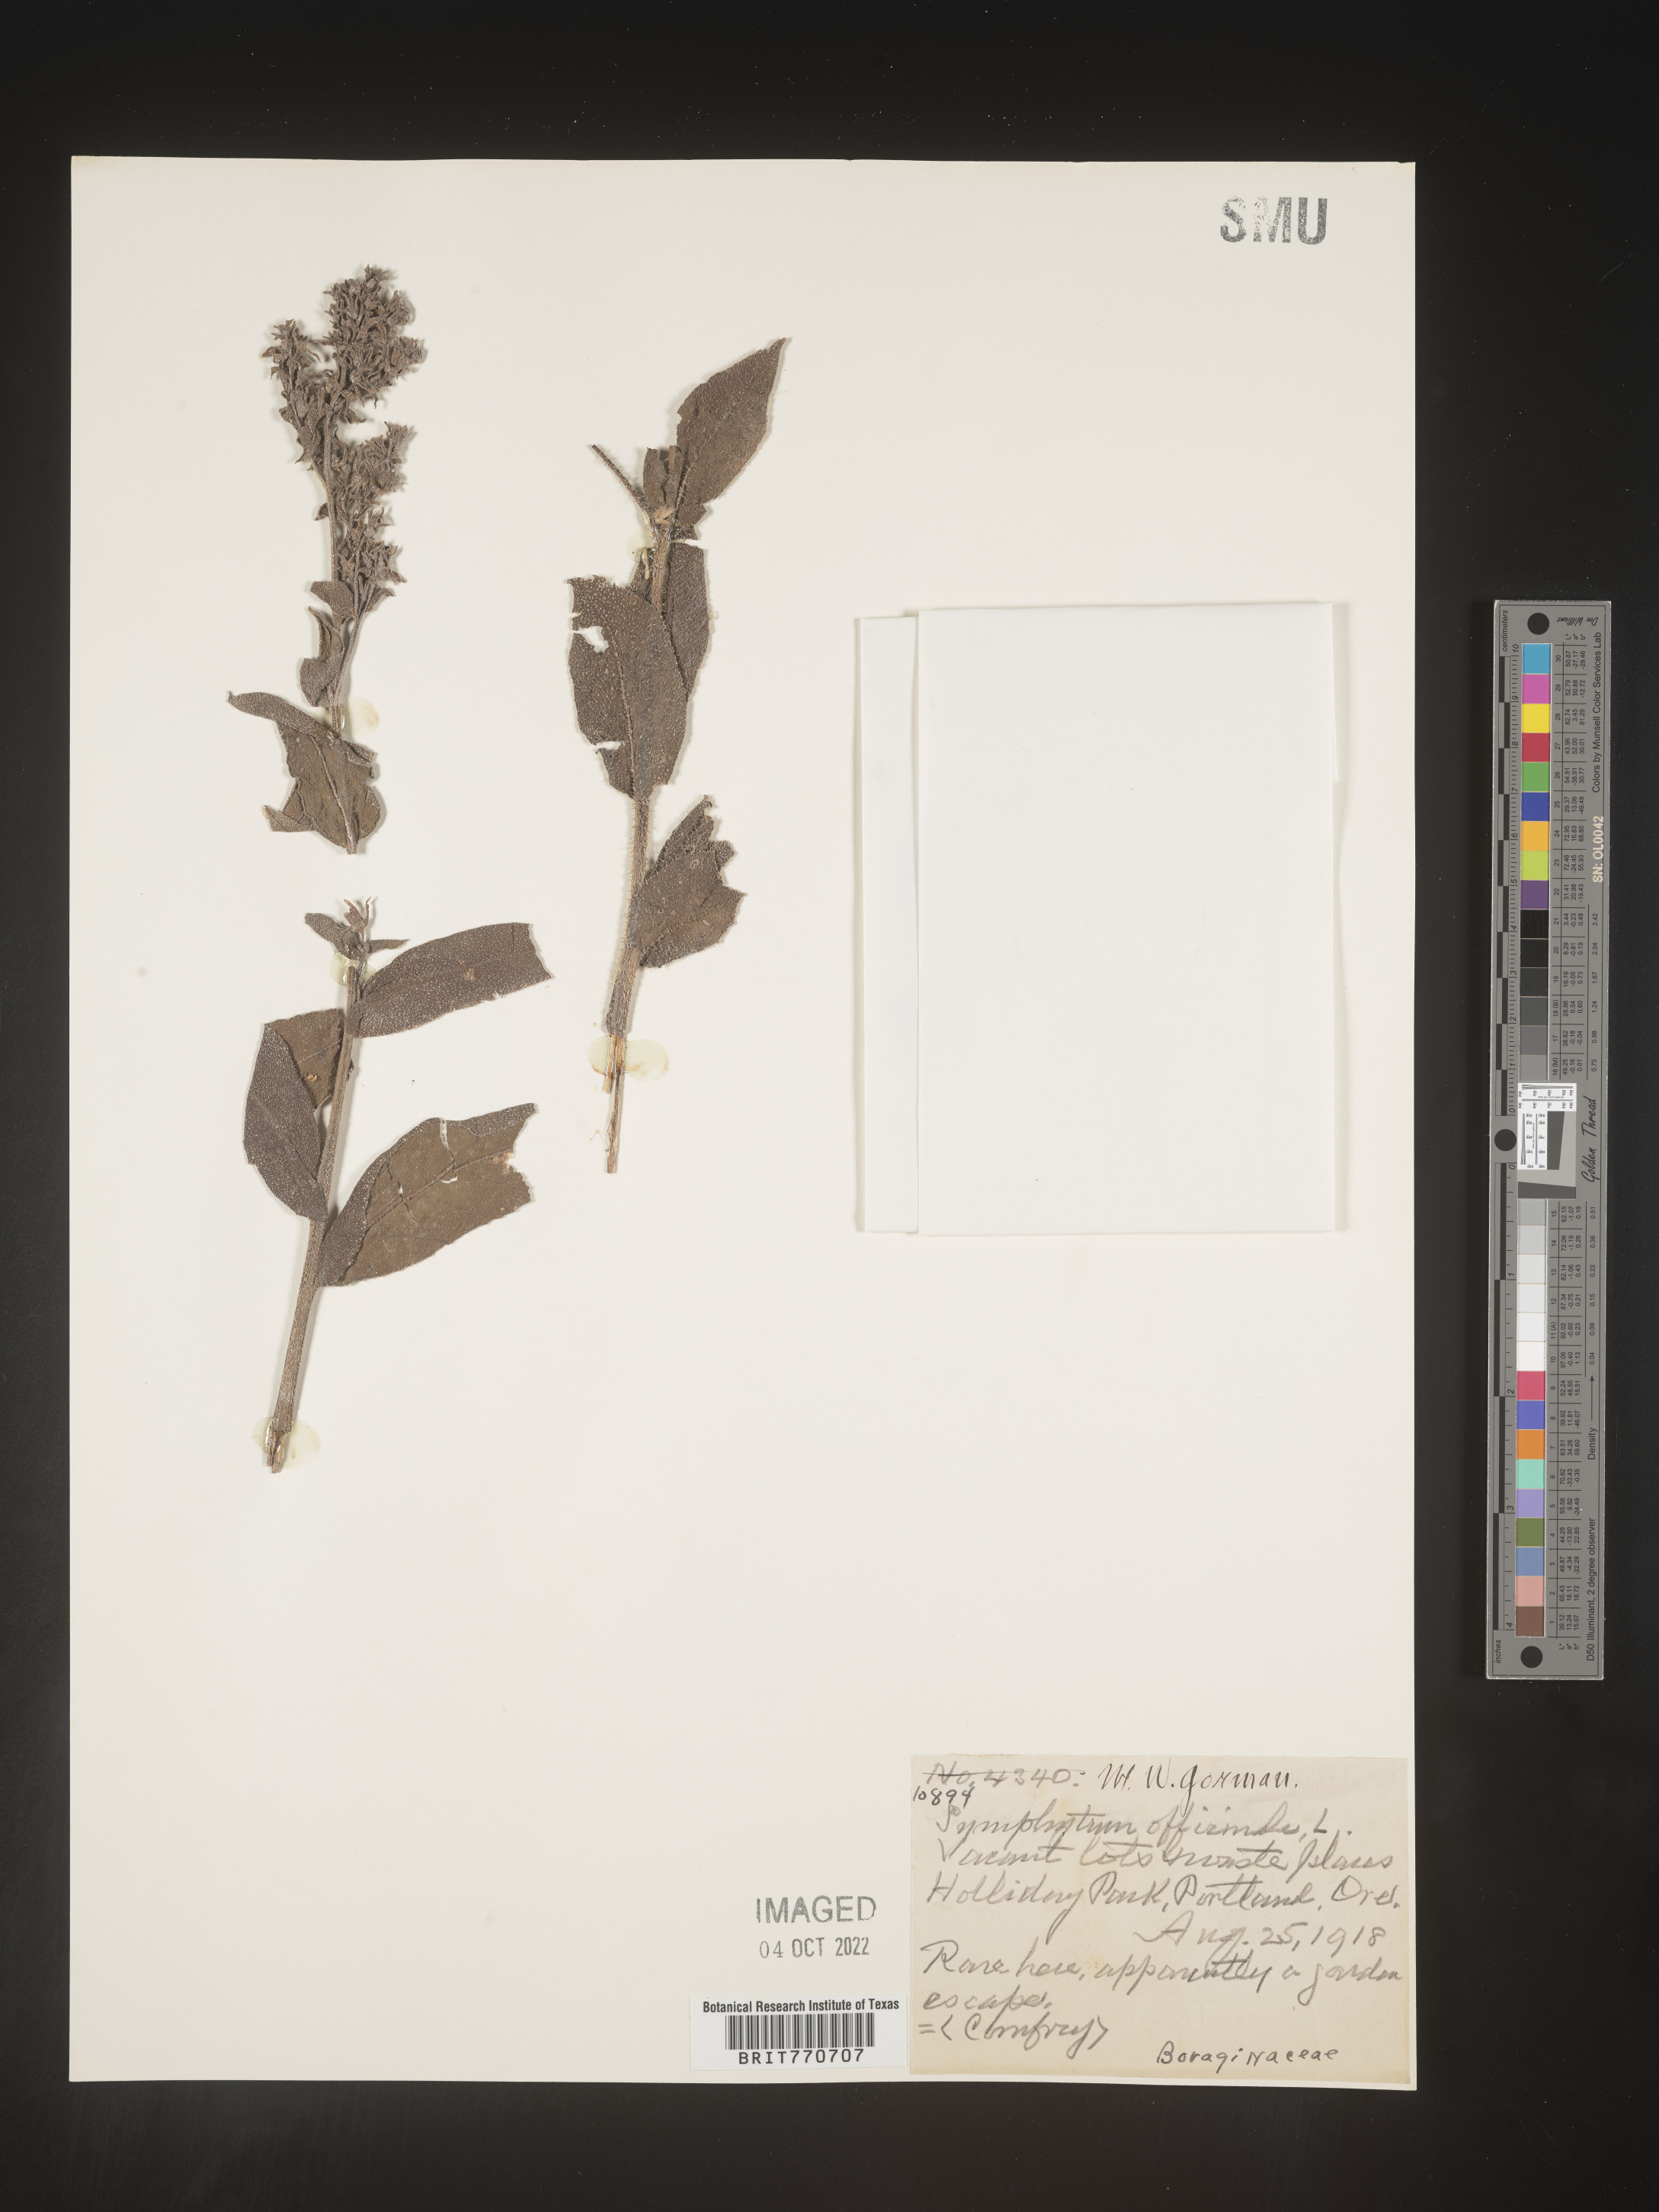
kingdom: Plantae
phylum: Tracheophyta
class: Magnoliopsida
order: Boraginales
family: Boraginaceae
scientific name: Boraginaceae
